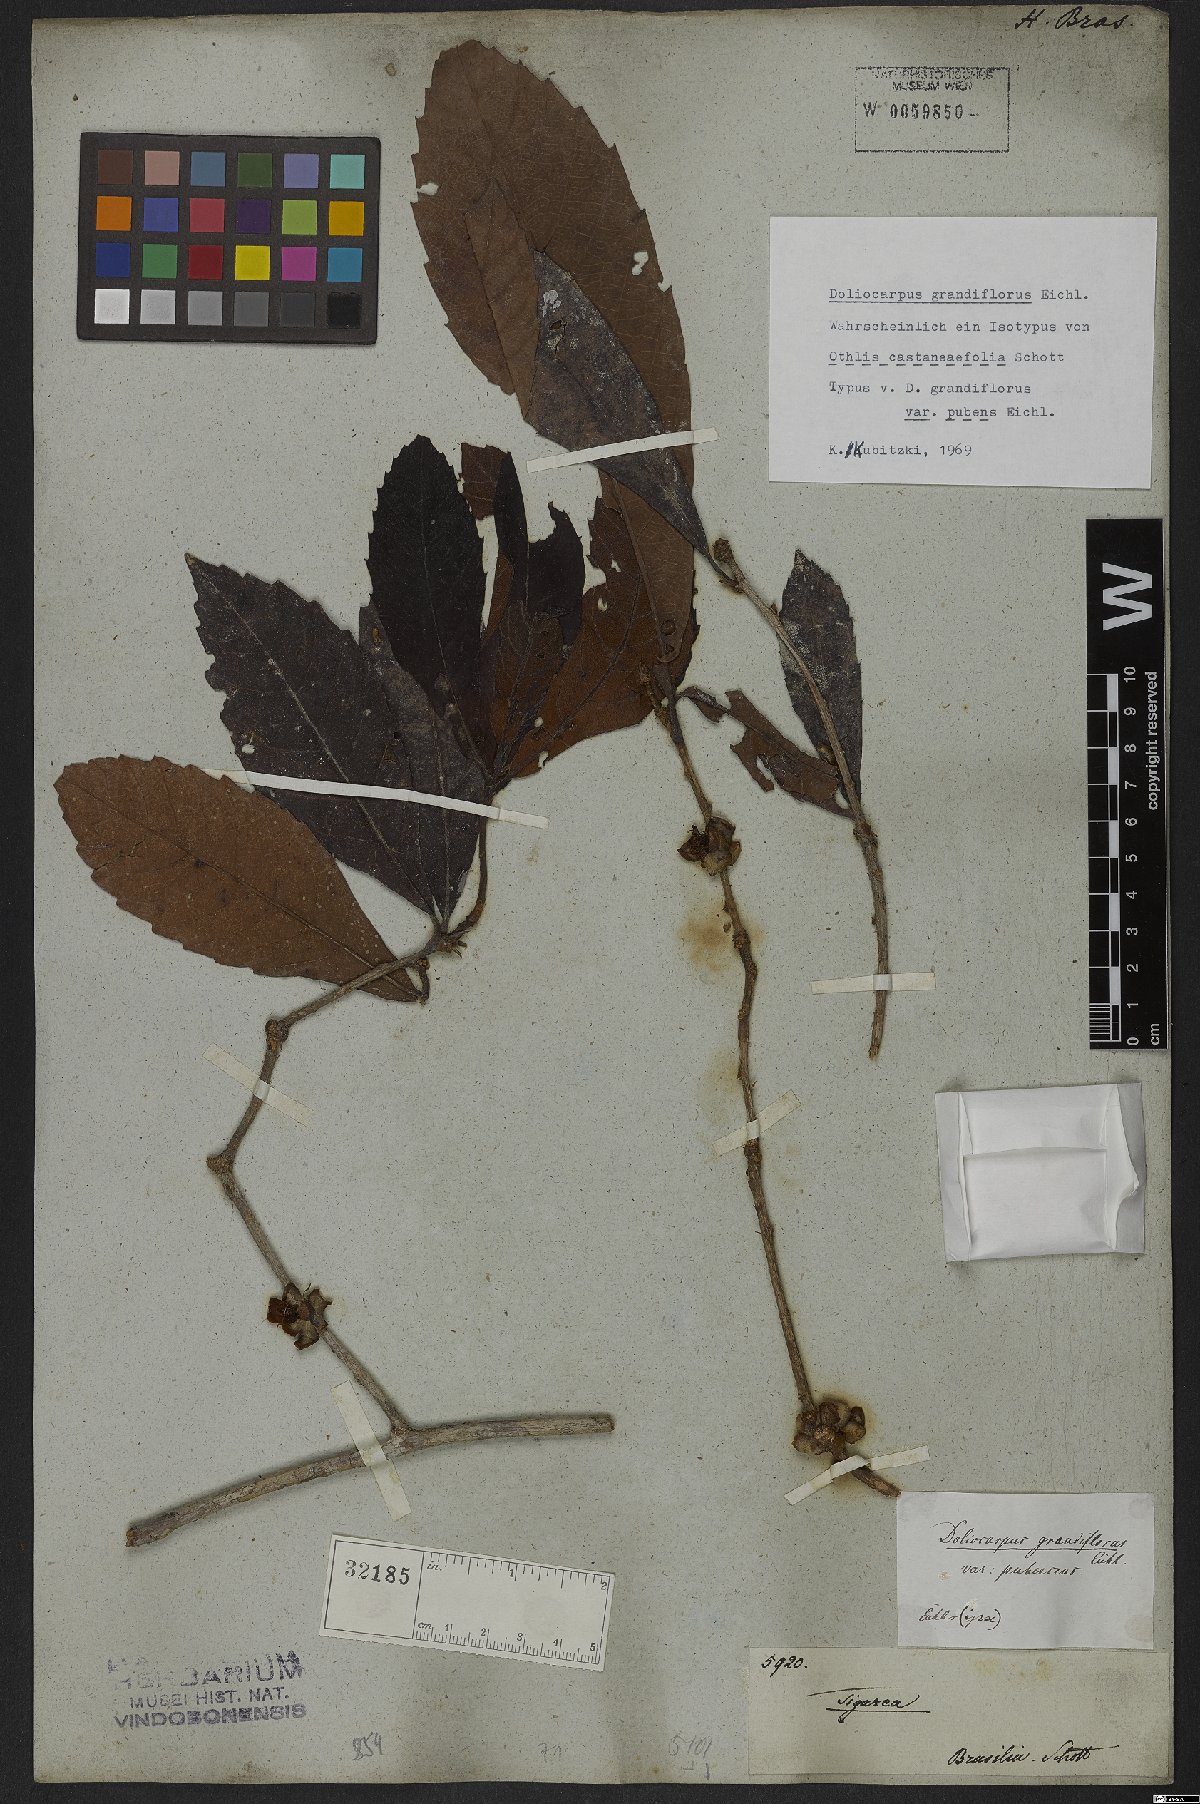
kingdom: Plantae
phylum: Tracheophyta
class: Magnoliopsida
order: Dilleniales
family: Dilleniaceae
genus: Doliocarpus
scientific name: Doliocarpus grandiflorus
